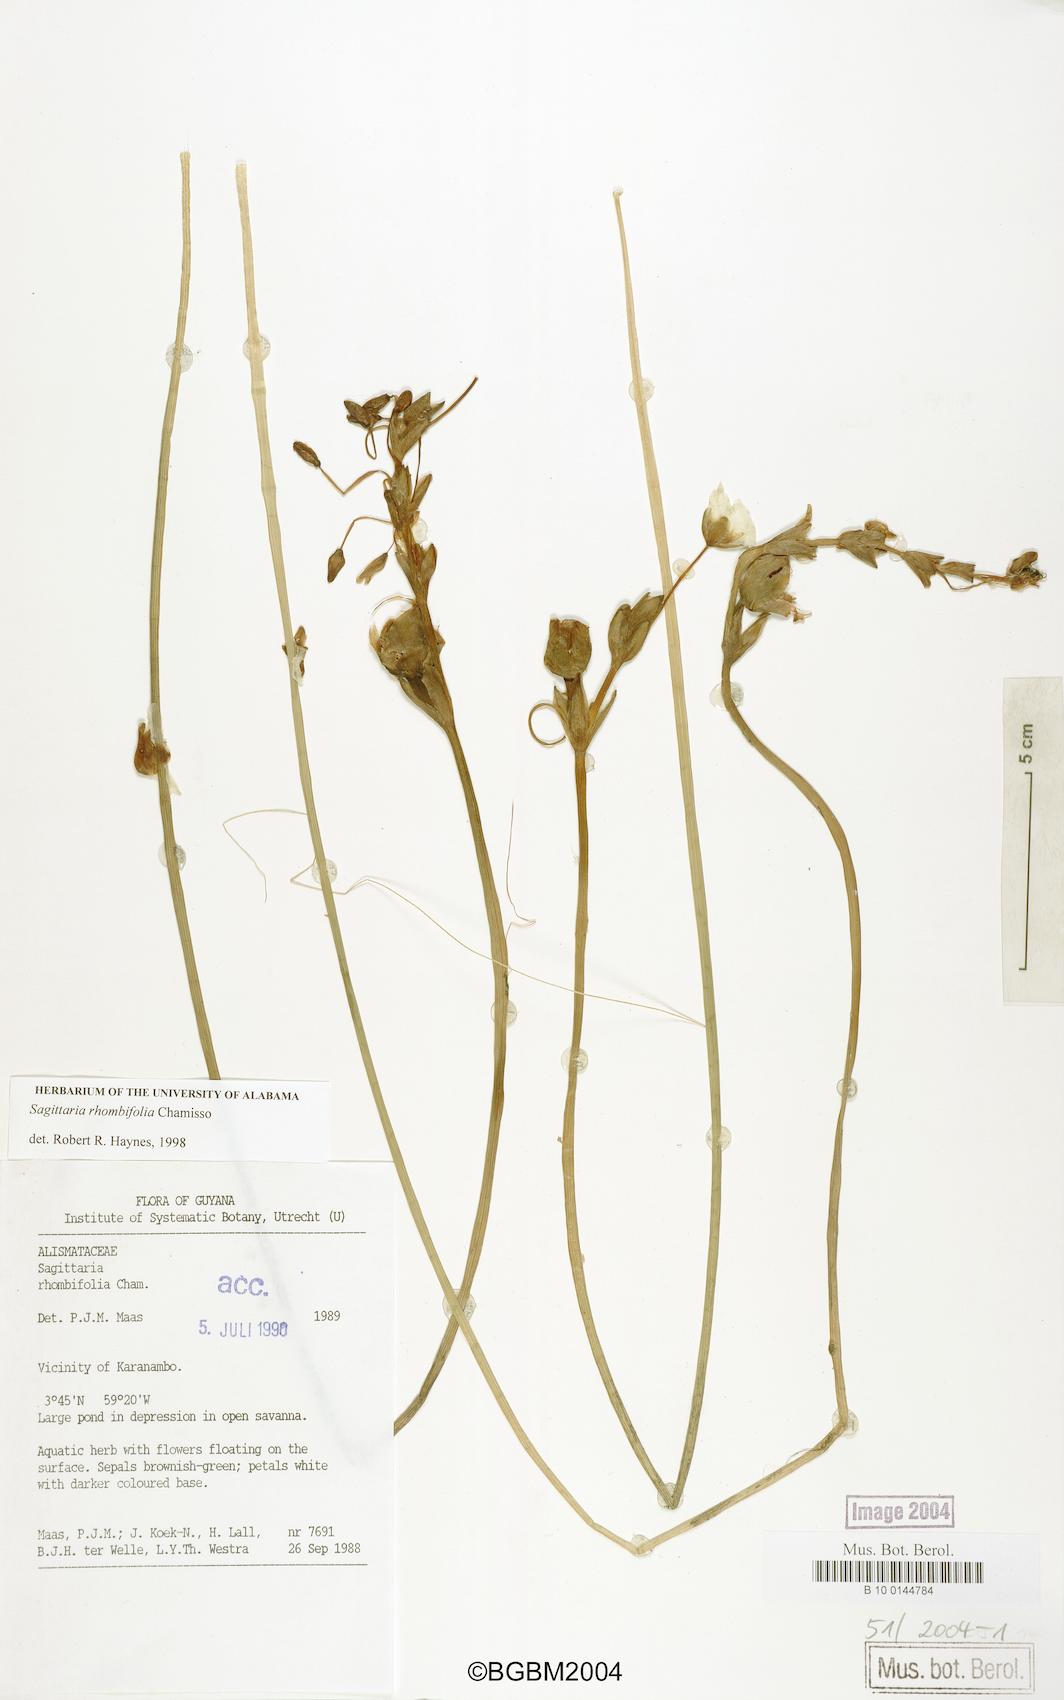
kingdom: Plantae
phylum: Tracheophyta
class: Liliopsida
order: Alismatales
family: Alismataceae
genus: Sagittaria
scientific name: Sagittaria rhombifolia
